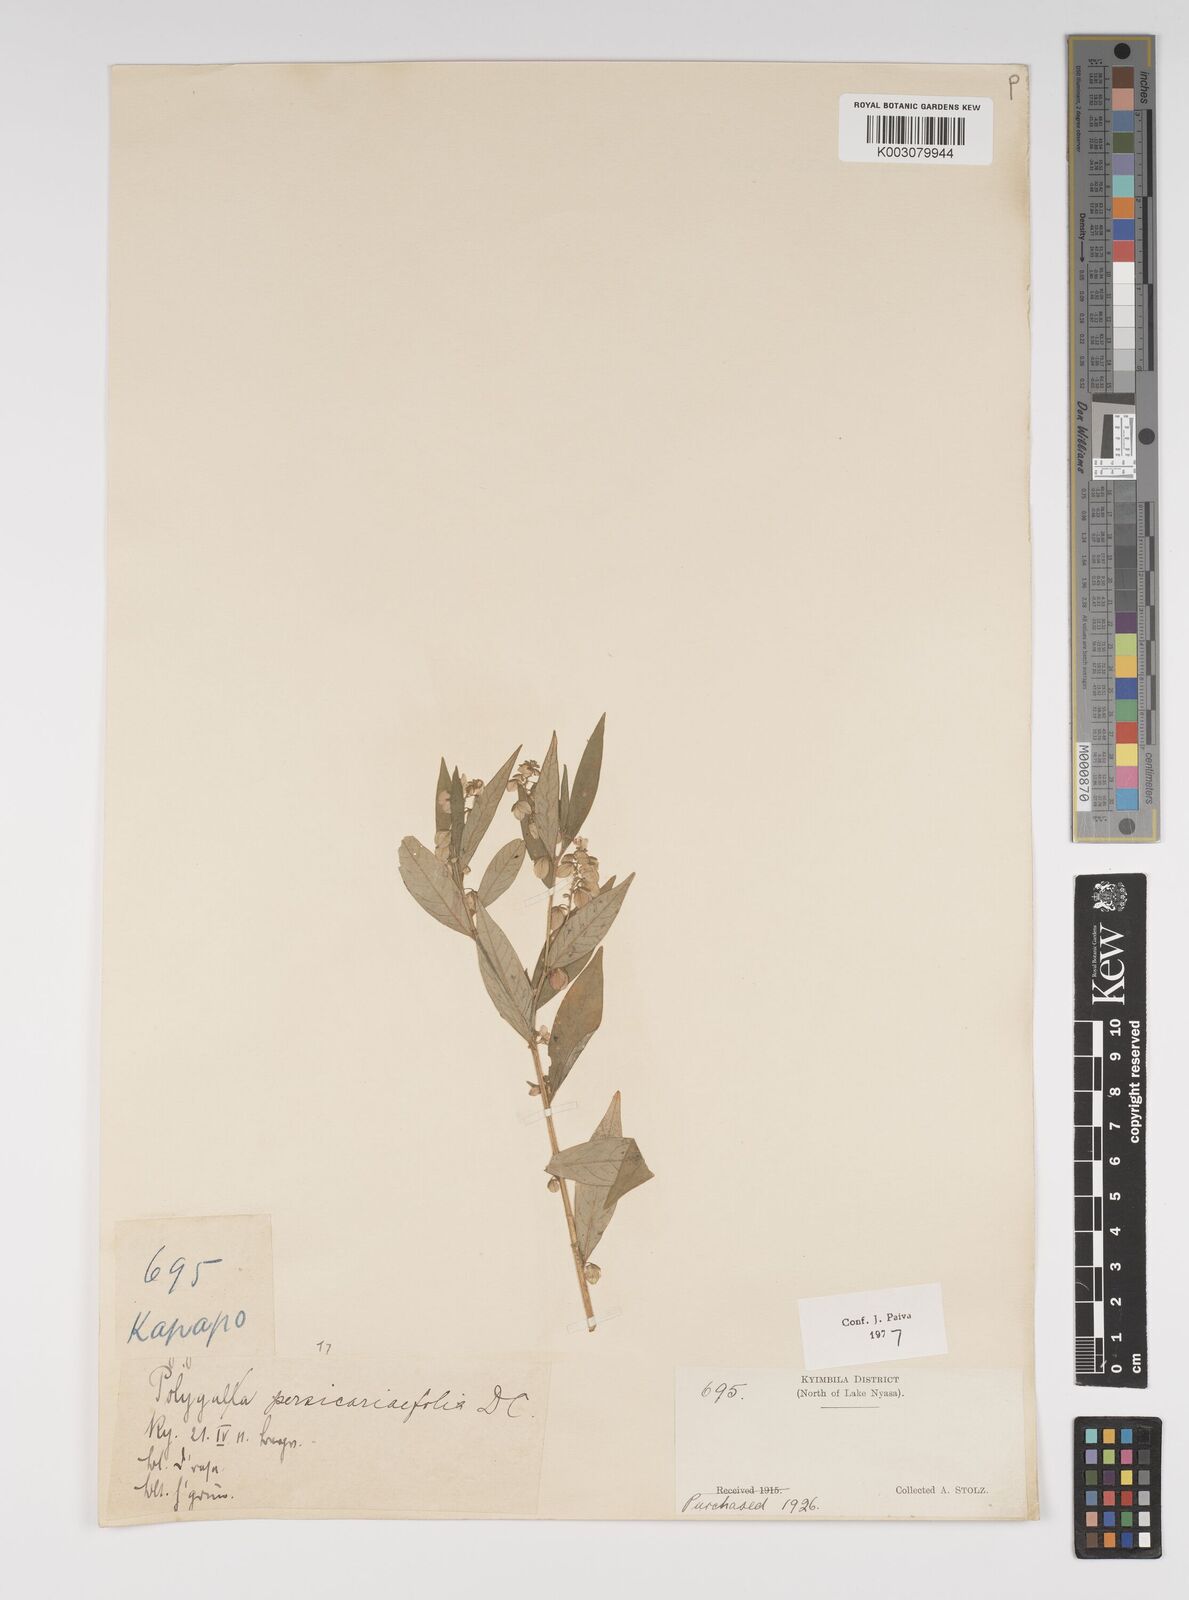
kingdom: Plantae
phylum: Tracheophyta
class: Magnoliopsida
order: Fabales
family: Polygalaceae
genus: Polygala
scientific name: Polygala persicariifolia
